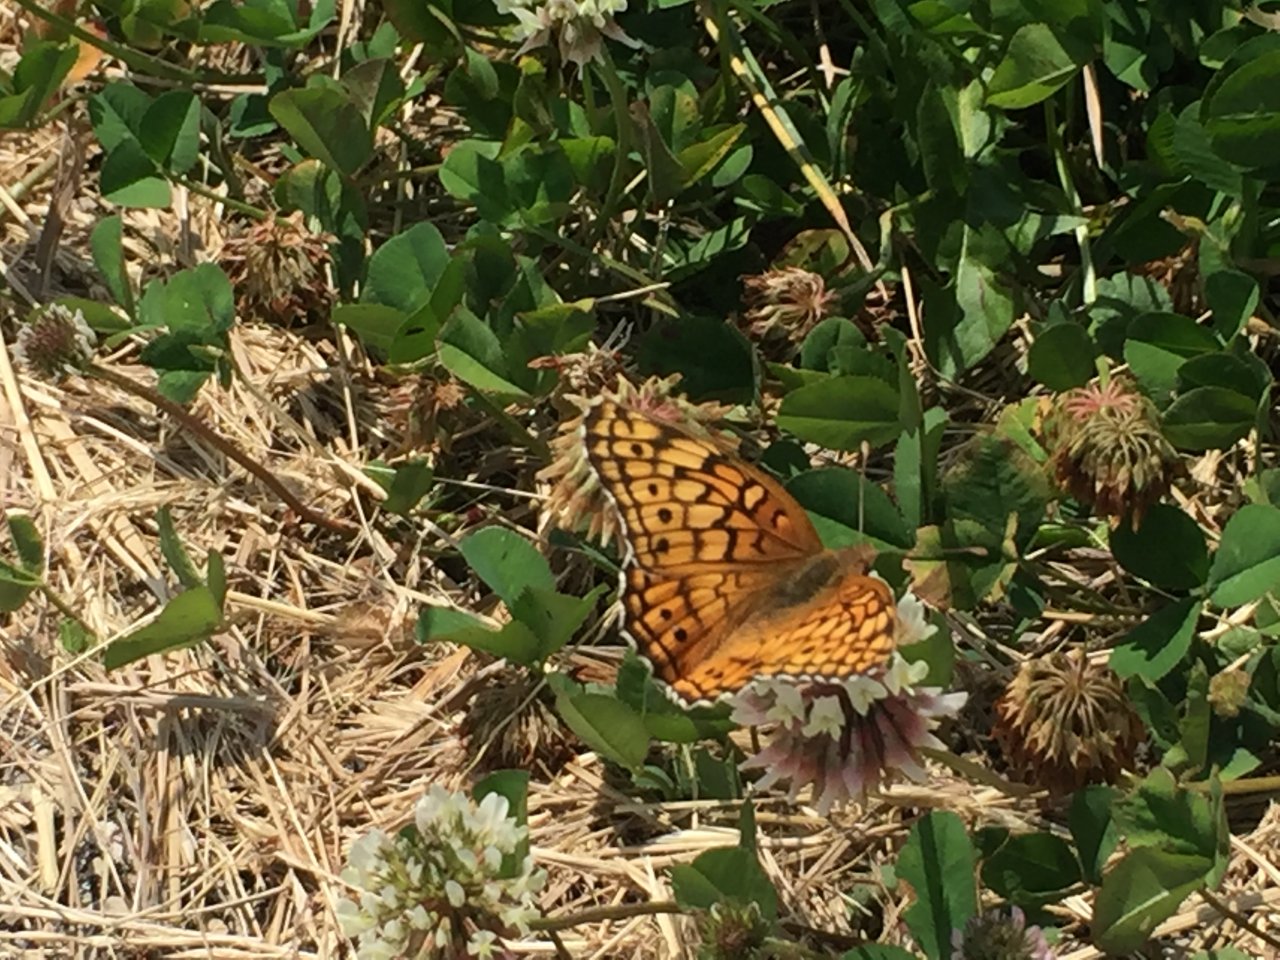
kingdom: Animalia
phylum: Arthropoda
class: Insecta
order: Lepidoptera
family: Nymphalidae
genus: Euptoieta
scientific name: Euptoieta claudia
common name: Variegated Fritillary
